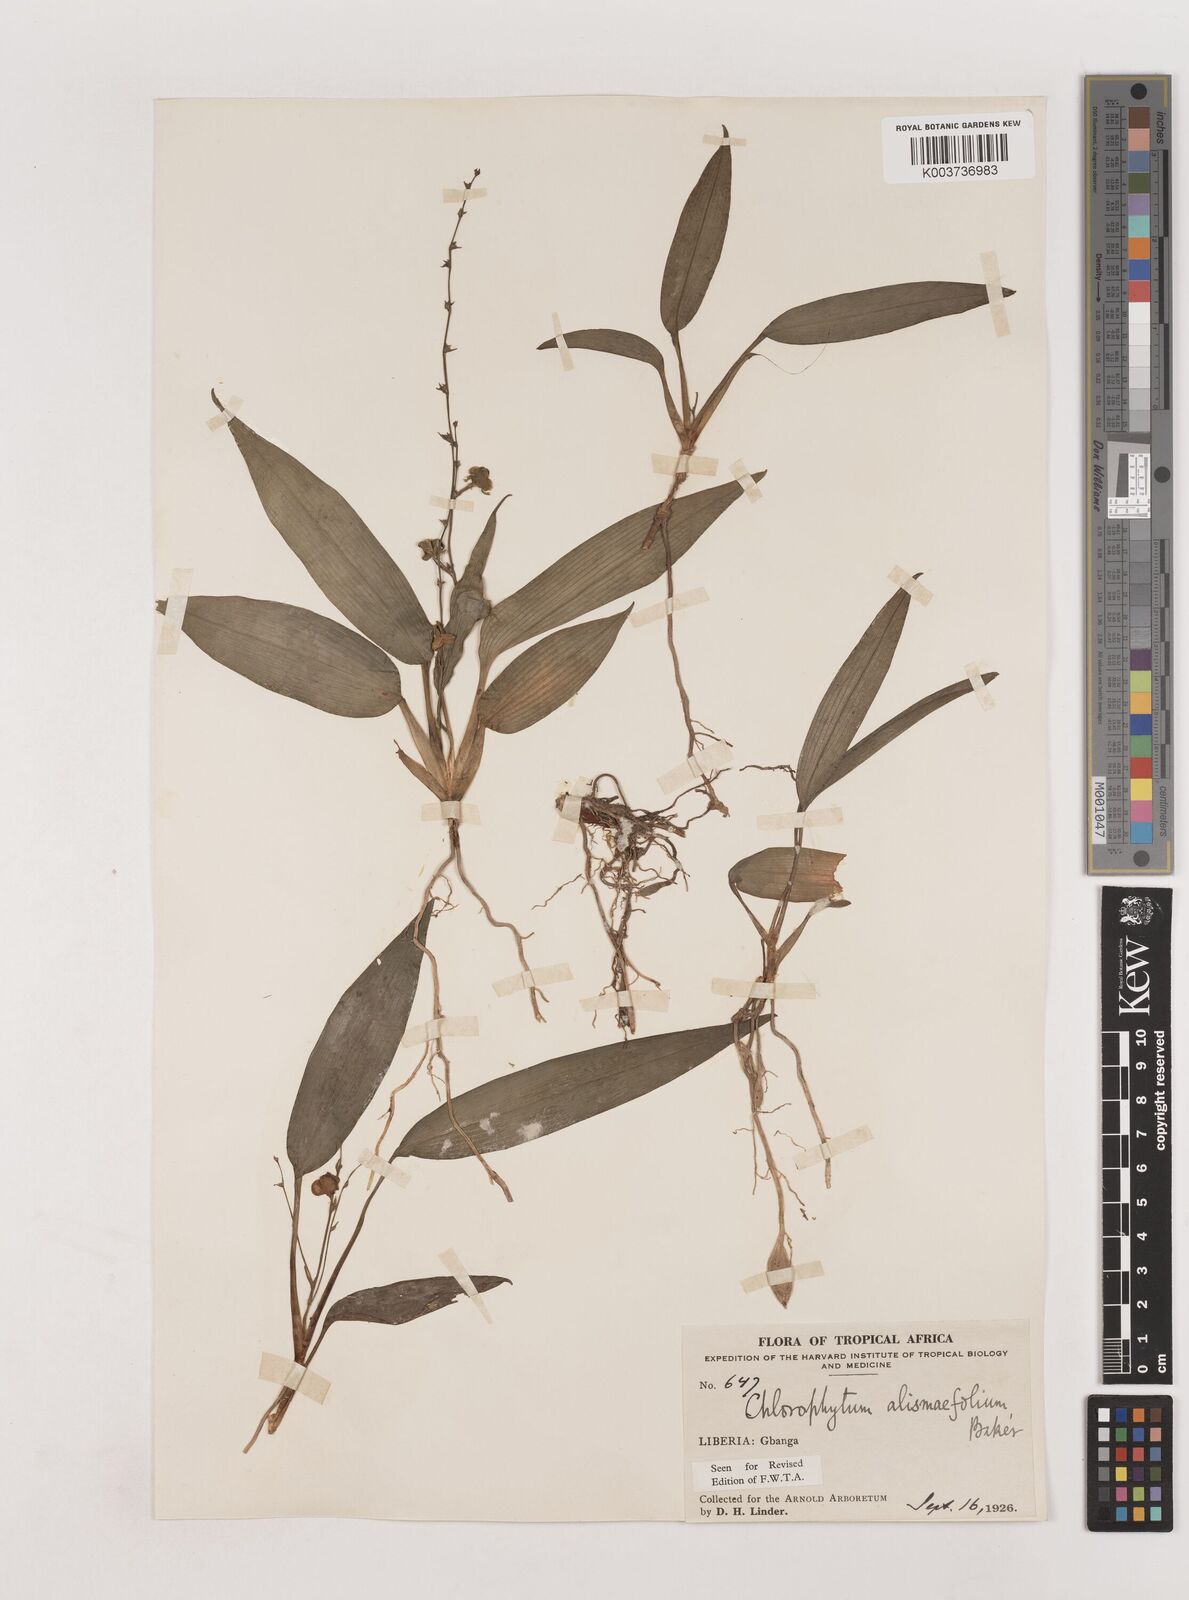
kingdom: Plantae
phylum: Tracheophyta
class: Liliopsida
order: Asparagales
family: Asparagaceae
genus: Chlorophytum
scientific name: Chlorophytum alismifolium
